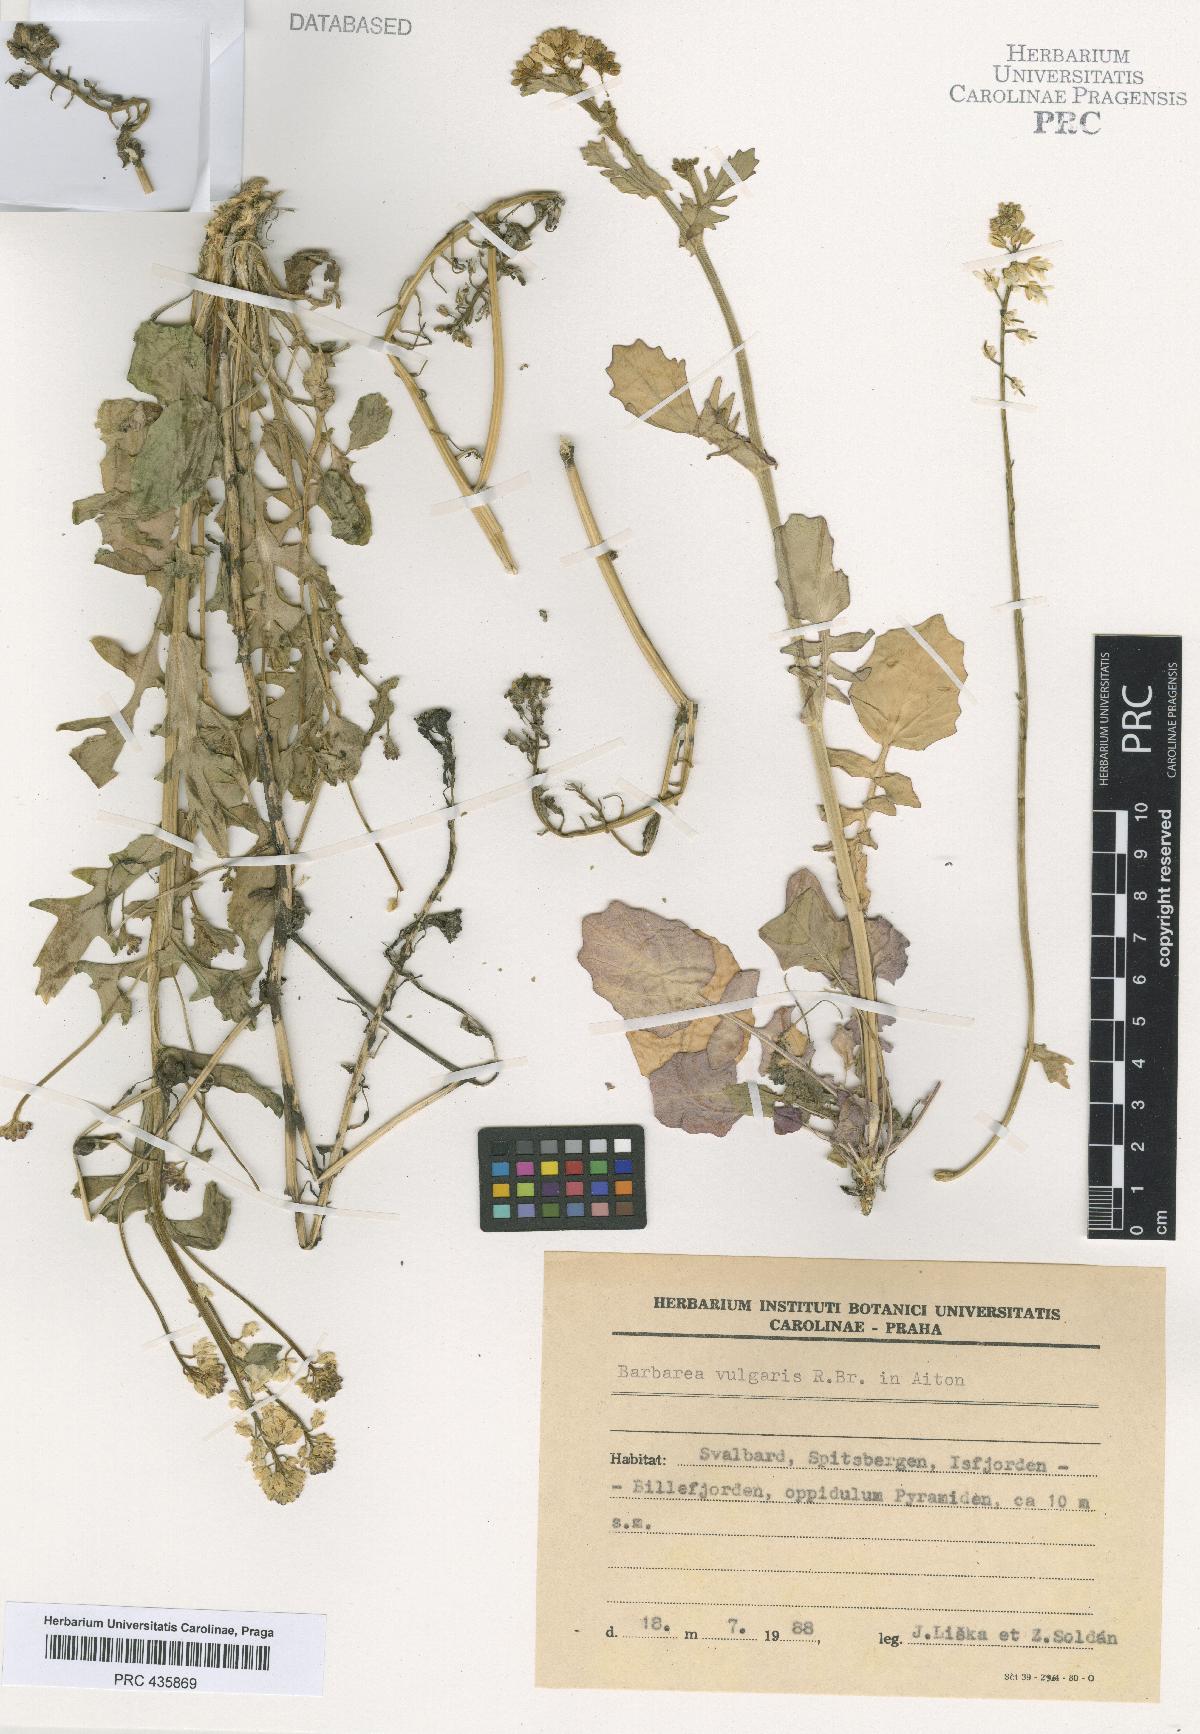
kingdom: Plantae
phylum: Tracheophyta
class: Magnoliopsida
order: Brassicales
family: Brassicaceae
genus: Barbarea
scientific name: Barbarea vulgaris
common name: Cressy-greens
